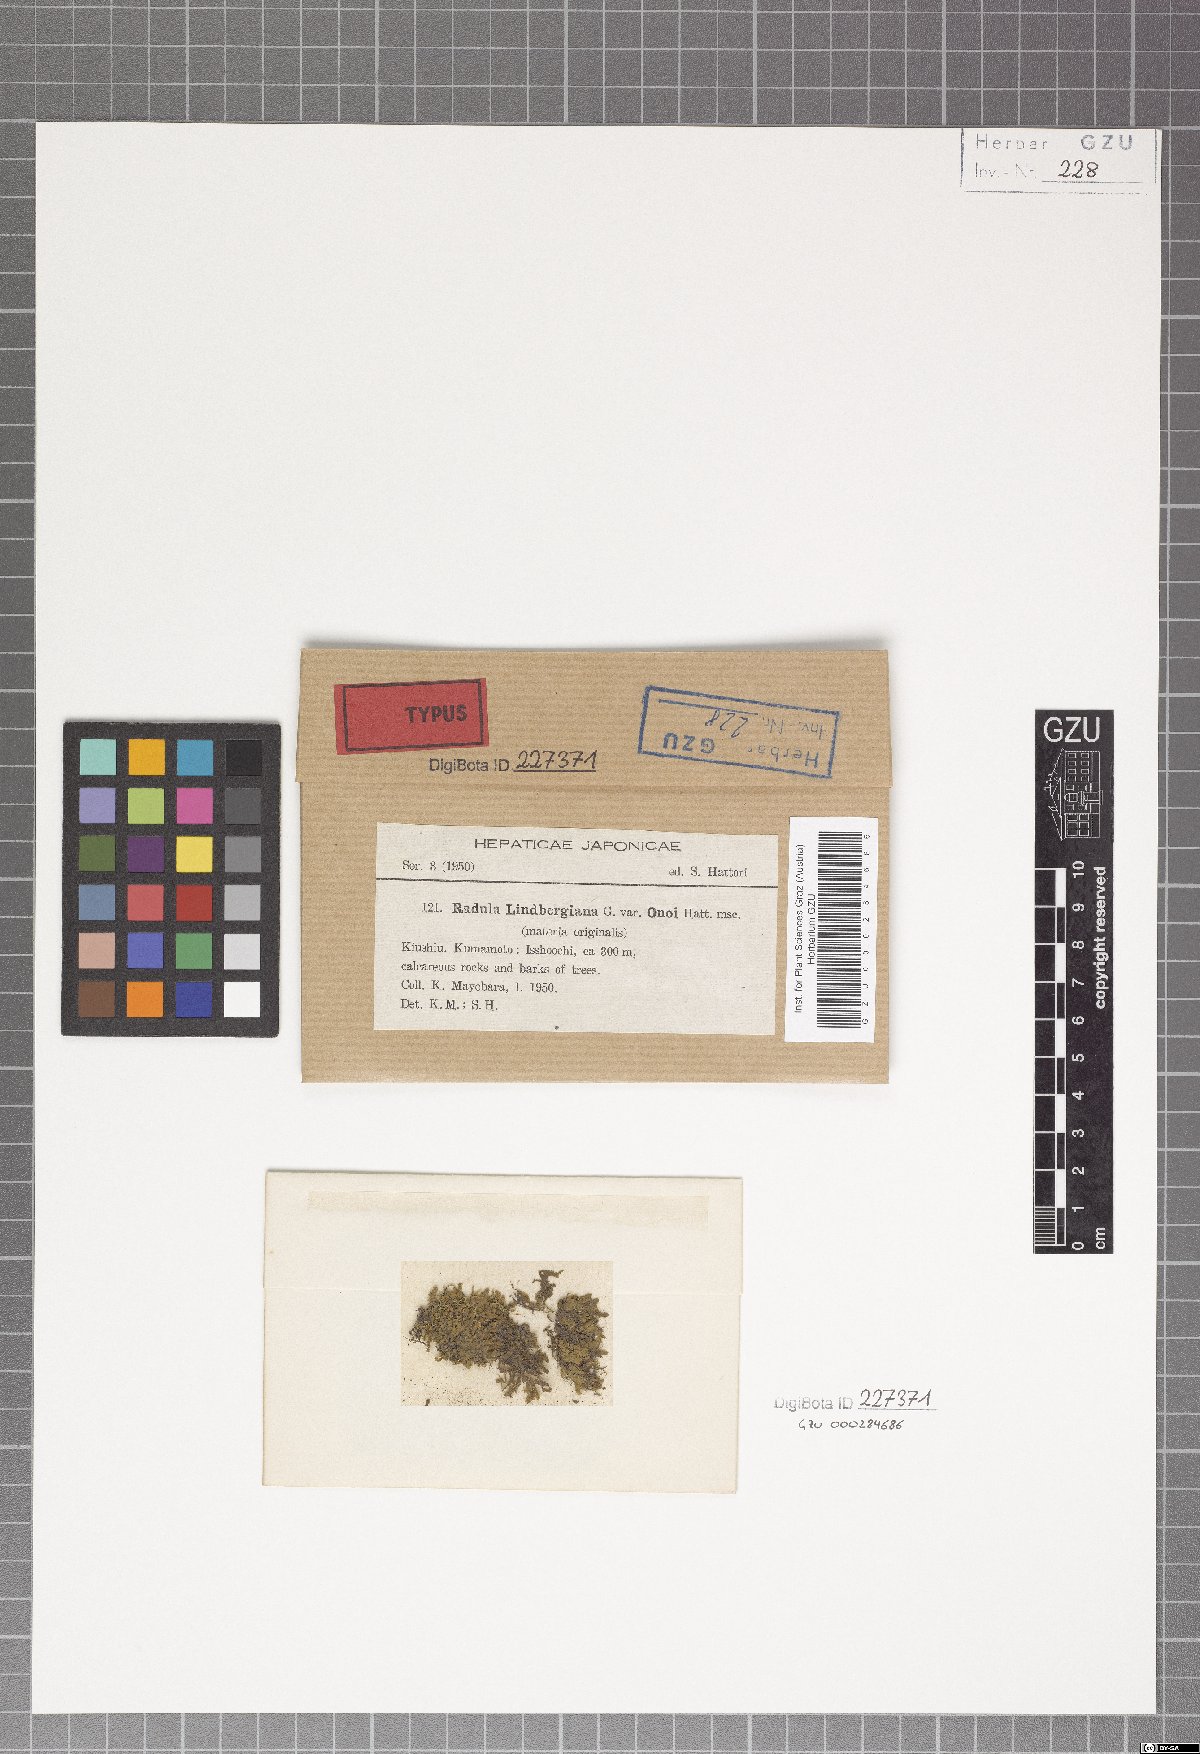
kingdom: Plantae
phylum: Marchantiophyta
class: Jungermanniopsida
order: Porellales
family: Radulaceae
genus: Radula
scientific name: Radula lindenbergiana
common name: Lindenberg's scalewort
